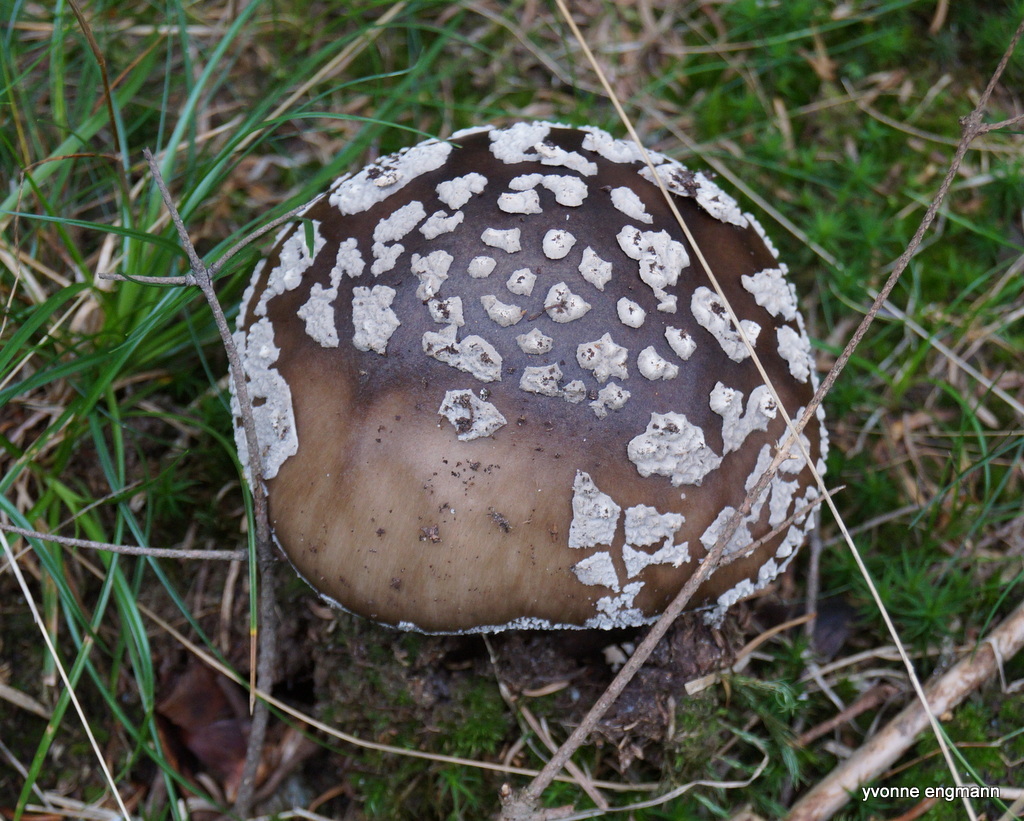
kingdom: Fungi
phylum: Basidiomycota
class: Agaricomycetes
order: Agaricales
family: Amanitaceae
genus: Amanita
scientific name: Amanita
